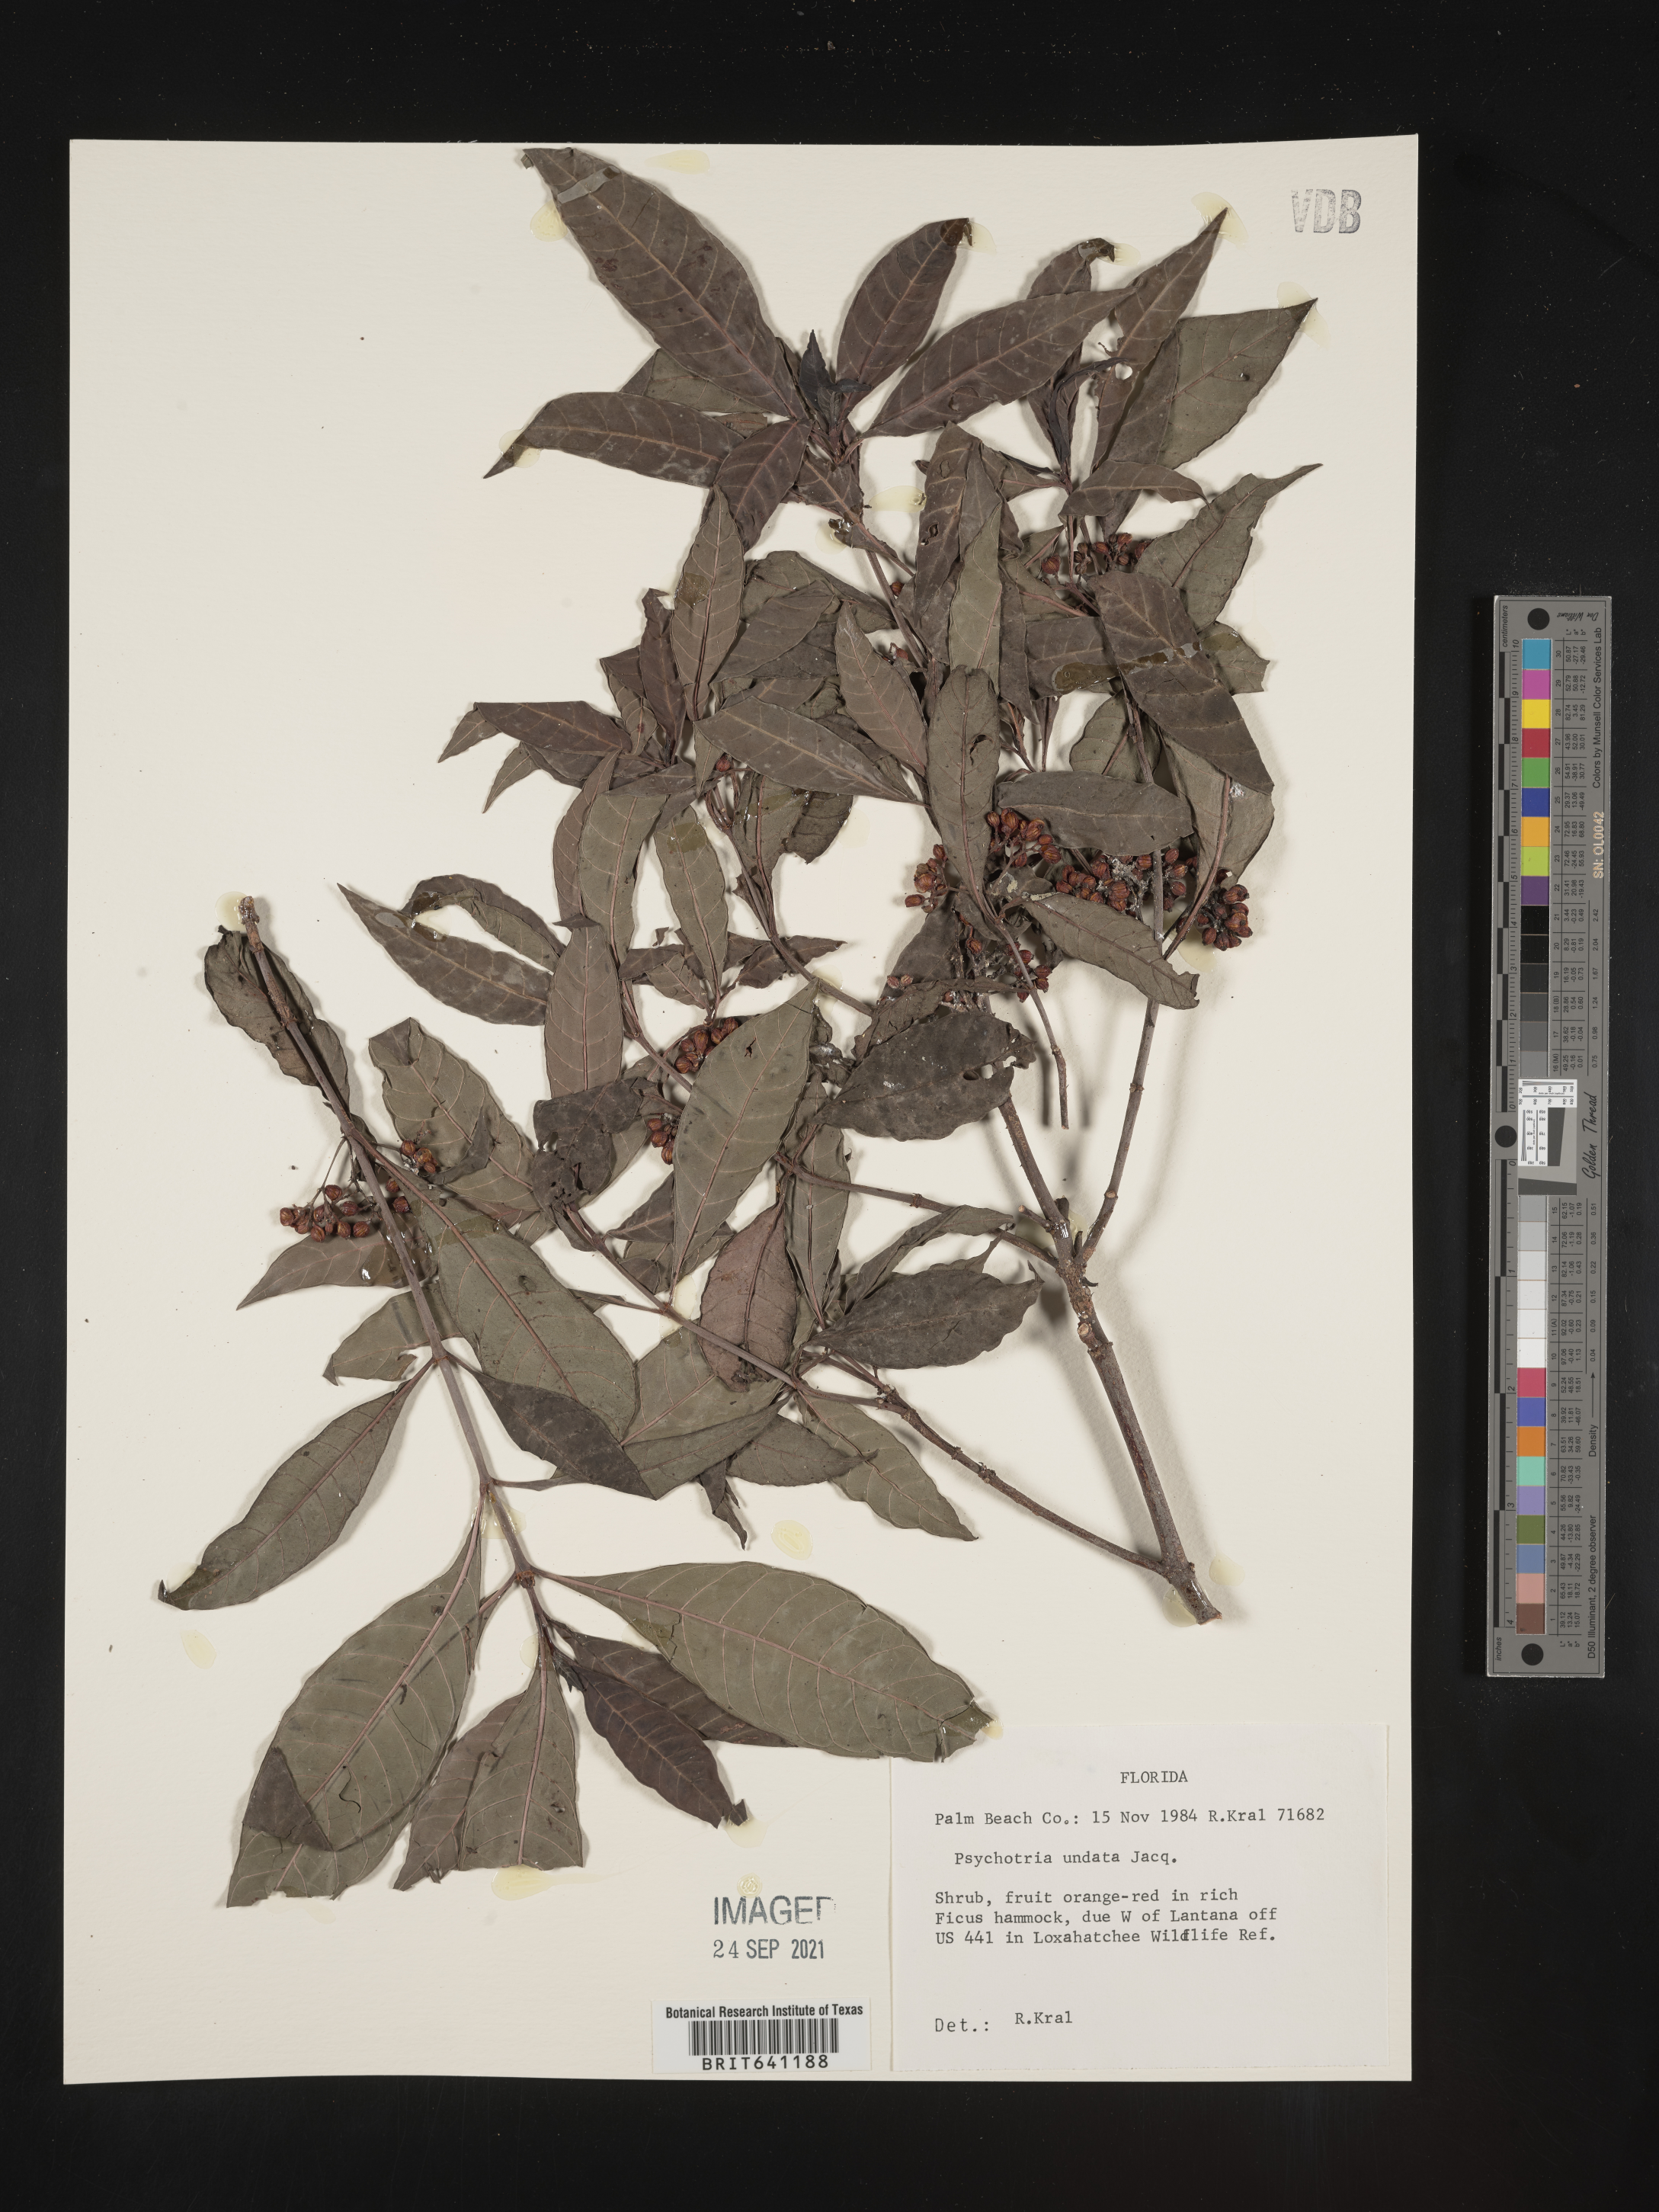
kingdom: Plantae
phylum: Tracheophyta
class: Magnoliopsida
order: Gentianales
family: Rubiaceae
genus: Psychotria
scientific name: Psychotria nervosa
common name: Bastard cankerberry
